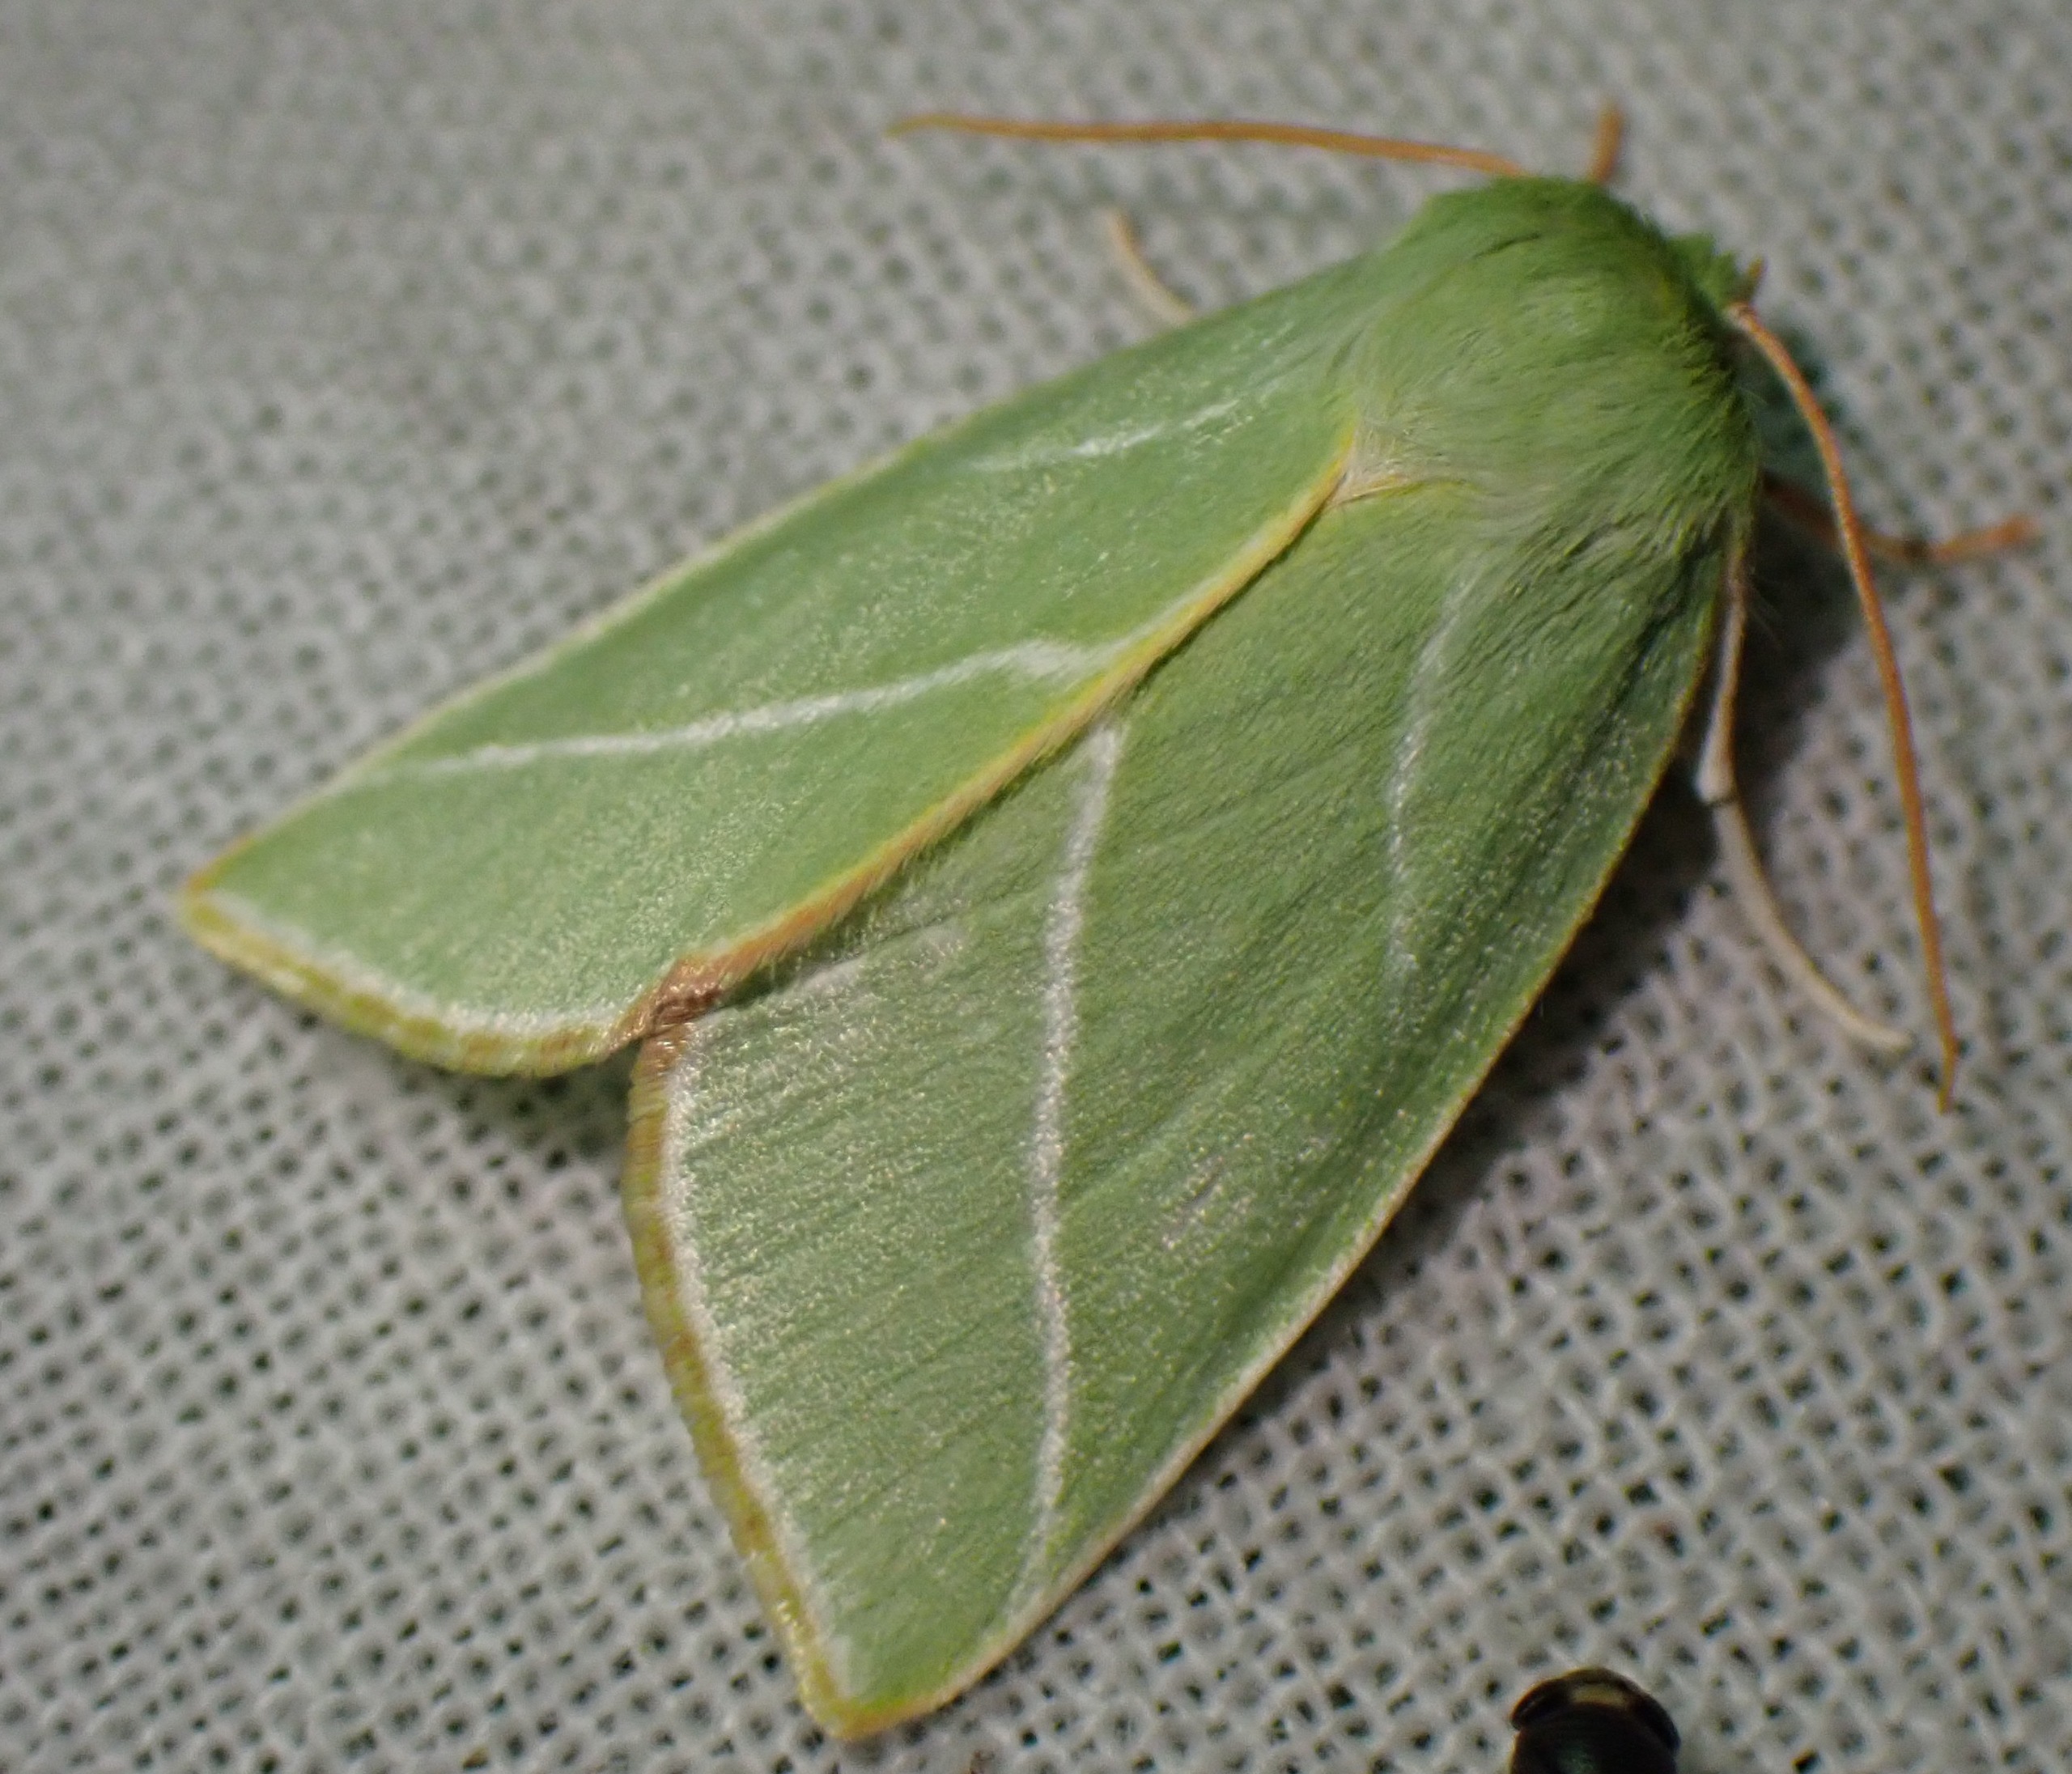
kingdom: Animalia
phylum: Arthropoda
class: Insecta
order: Lepidoptera
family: Nolidae
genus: Pseudoips
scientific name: Pseudoips prasinana
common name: Grøn bøgeugle
